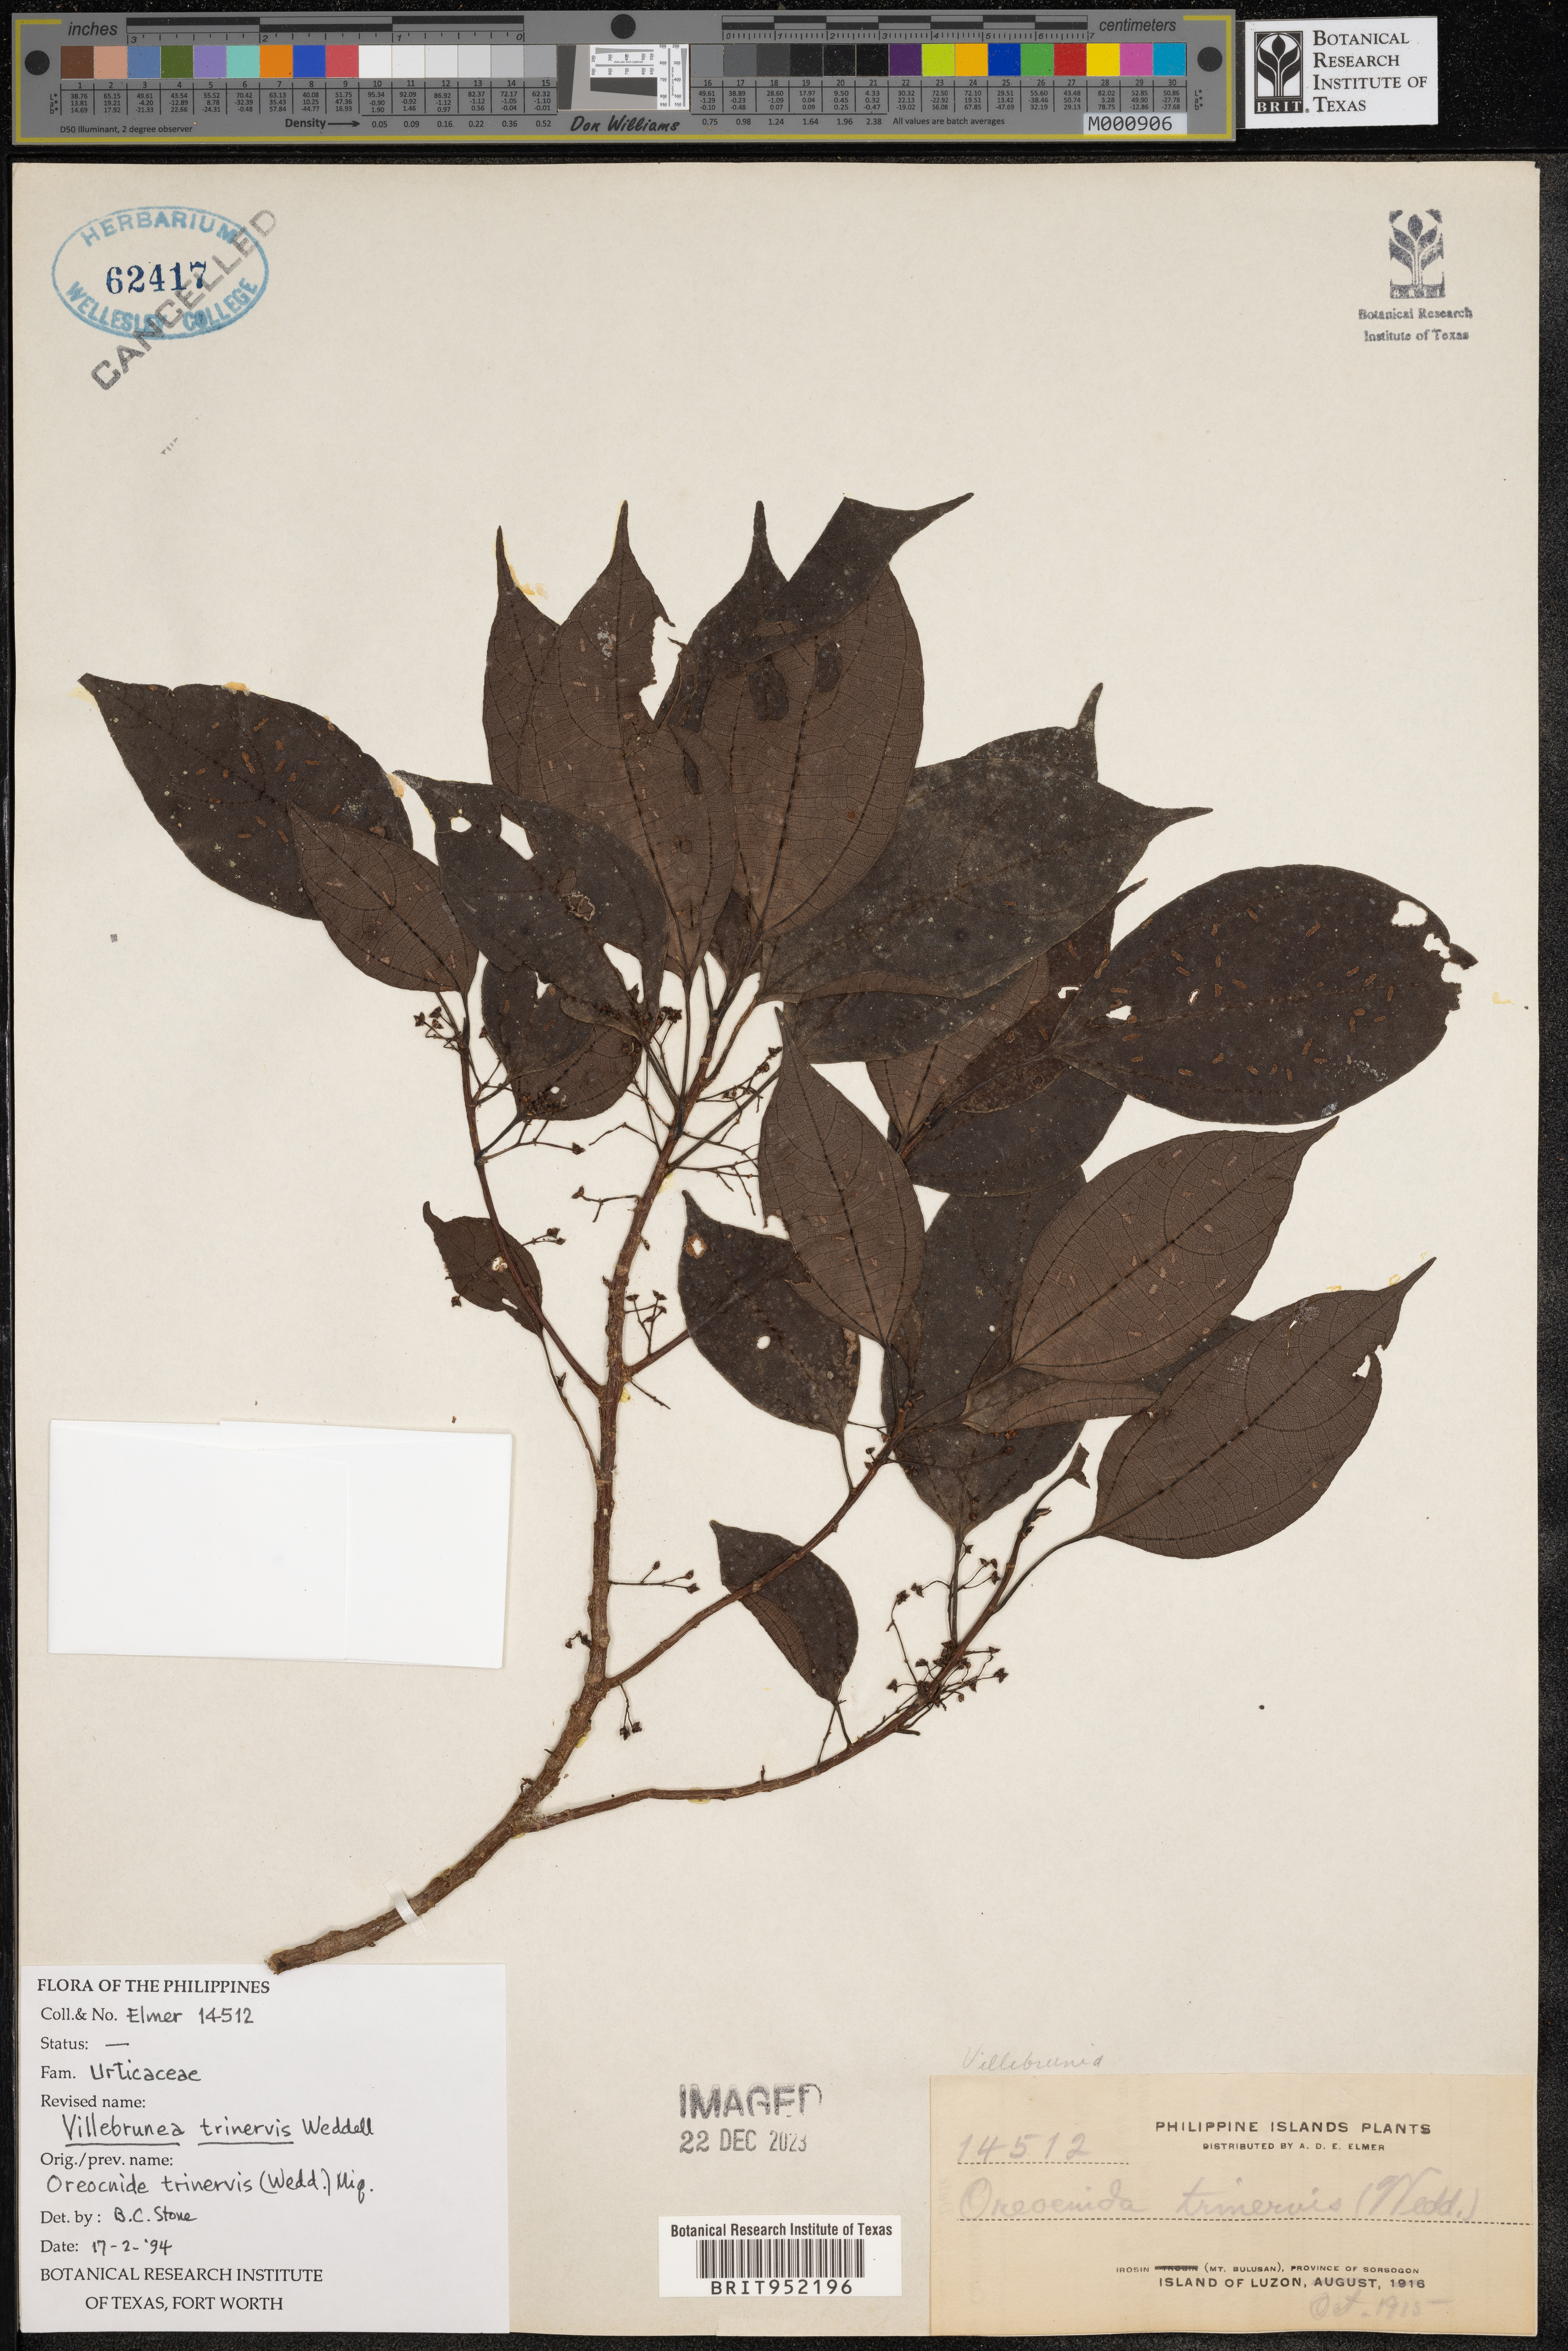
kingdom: Plantae
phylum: Tracheophyta
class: Magnoliopsida
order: Rosales
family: Urticaceae
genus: Oreocnide
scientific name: Oreocnide
